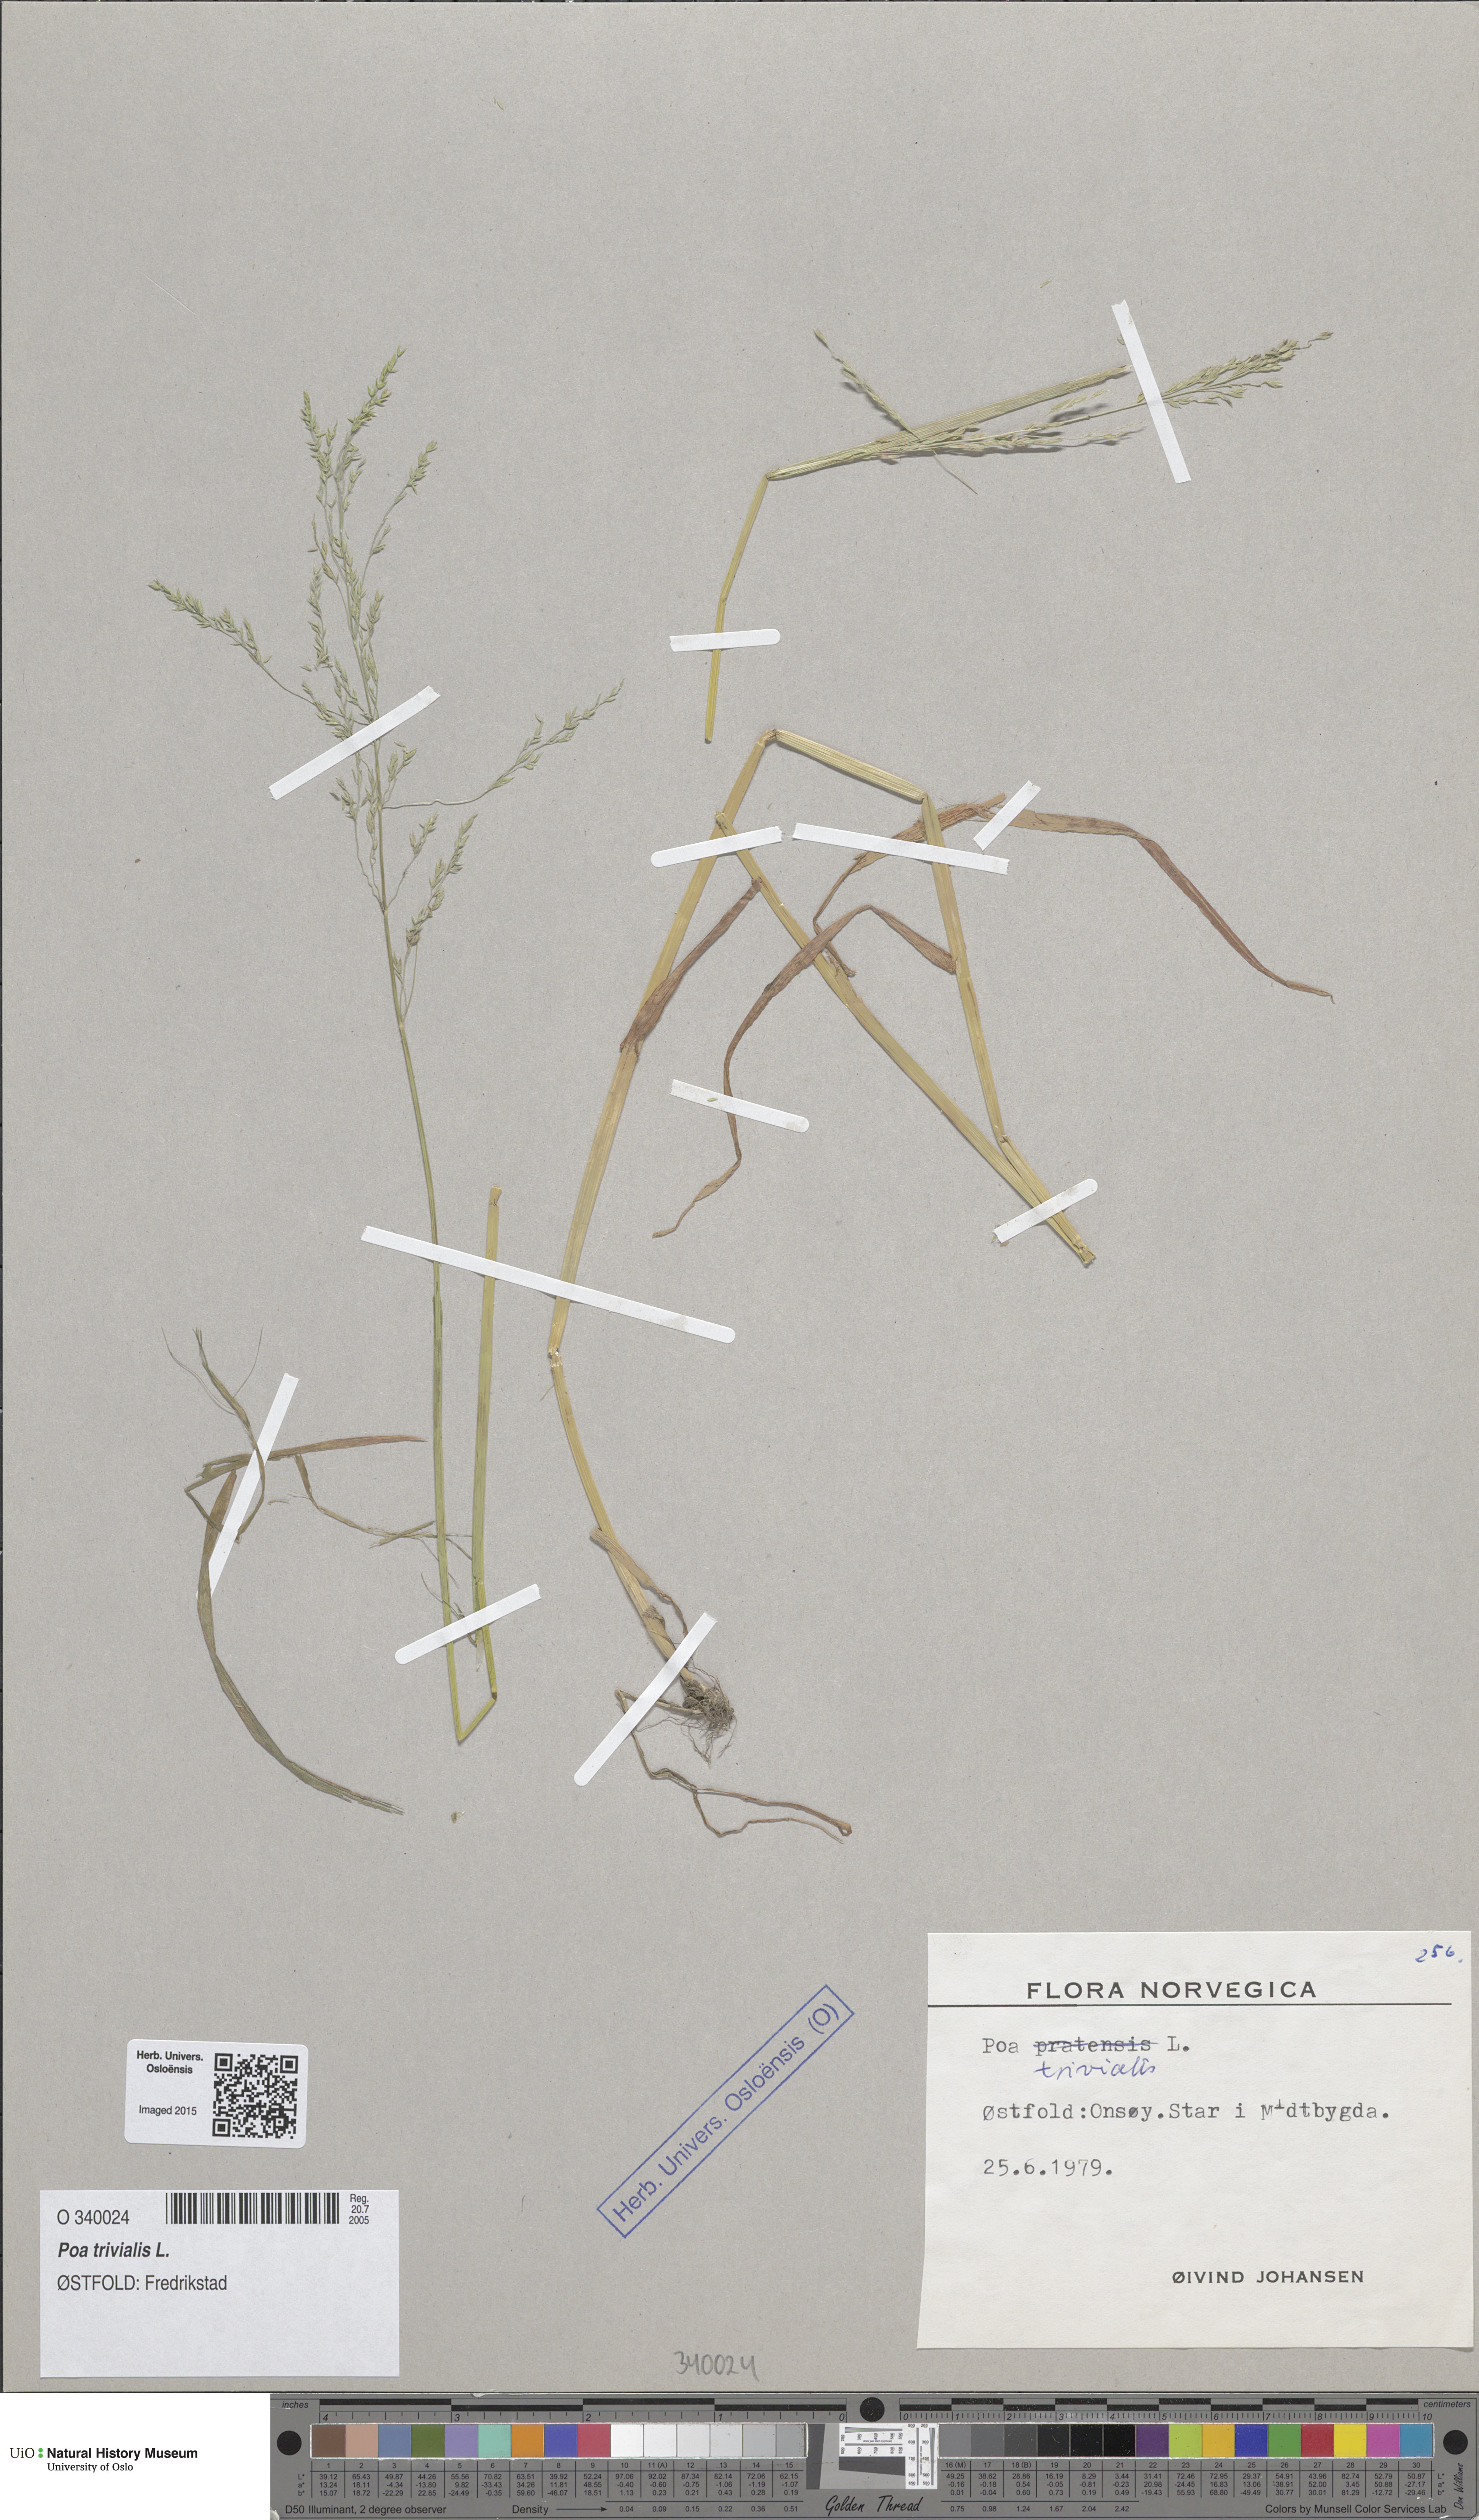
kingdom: Plantae
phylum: Tracheophyta
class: Liliopsida
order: Poales
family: Poaceae
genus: Poa
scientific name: Poa trivialis
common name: Rough bluegrass
